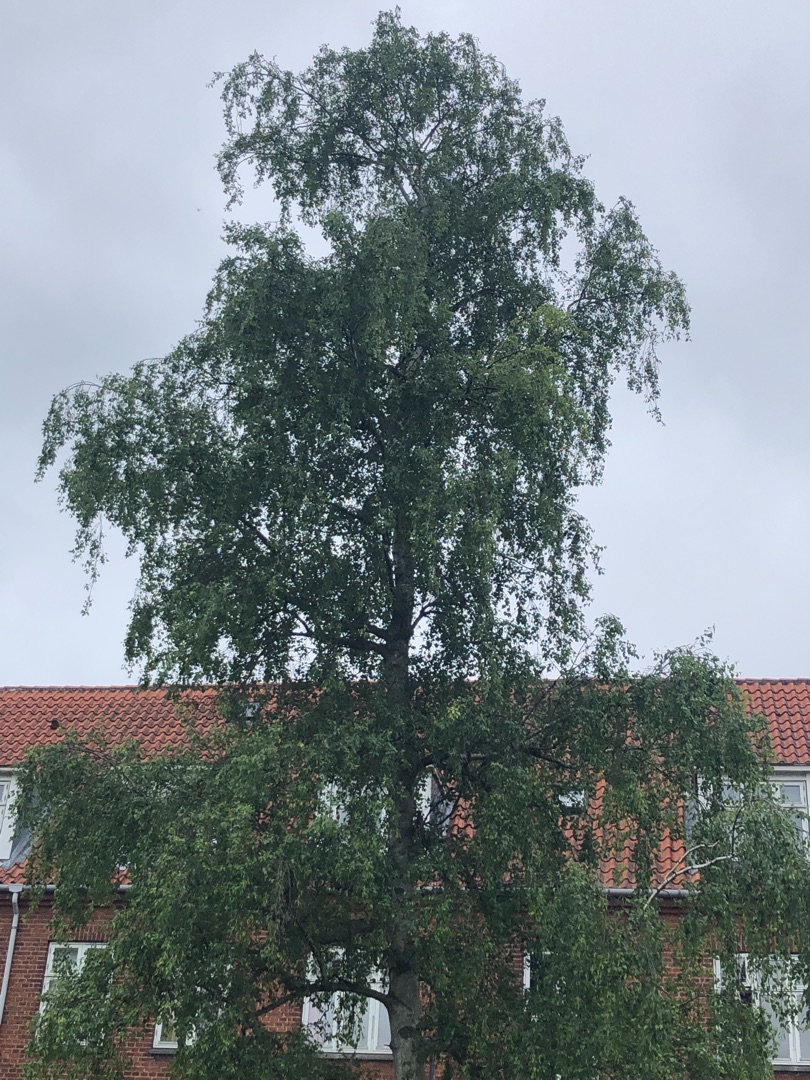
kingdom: Plantae
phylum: Tracheophyta
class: Magnoliopsida
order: Fagales
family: Betulaceae
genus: Betula
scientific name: Betula pendula
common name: Vorte-birk
